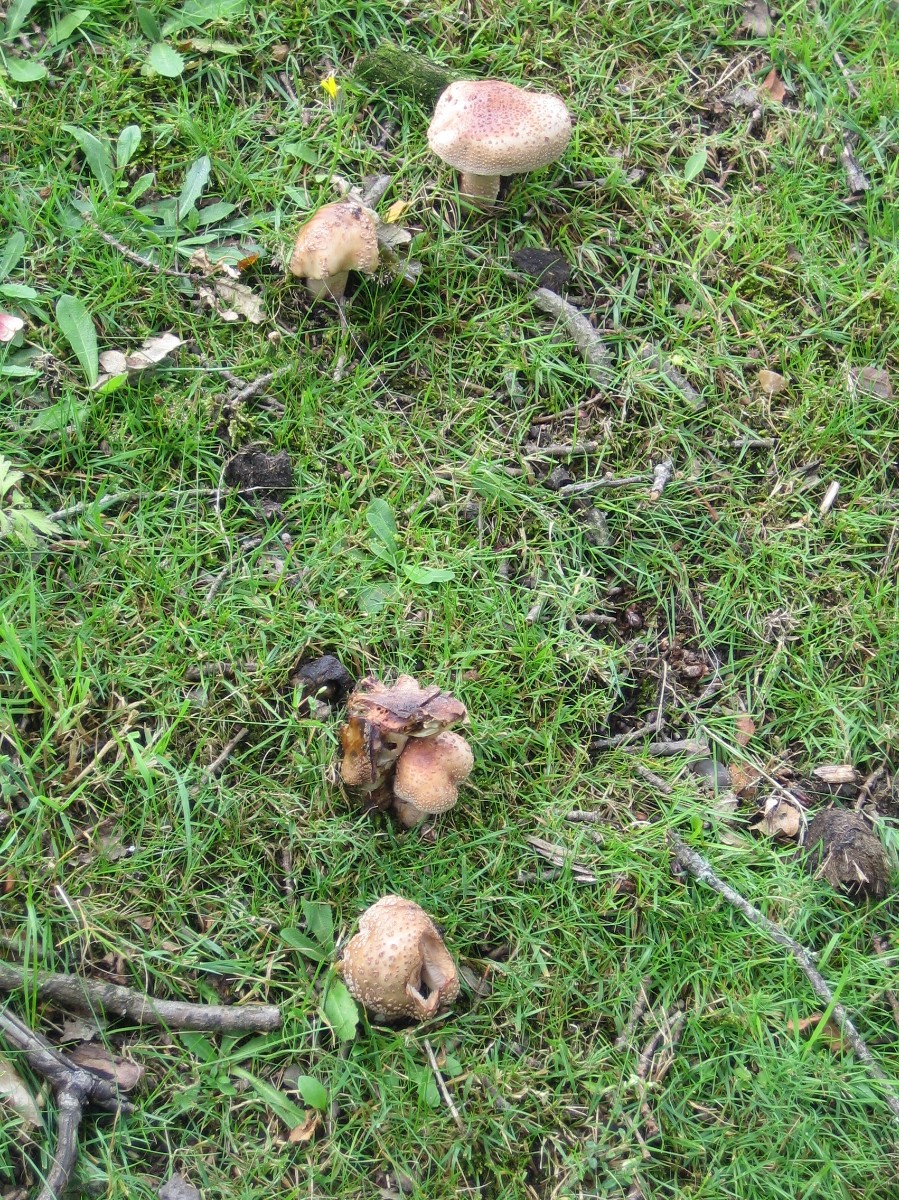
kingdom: Fungi
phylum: Basidiomycota
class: Agaricomycetes
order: Agaricales
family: Amanitaceae
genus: Amanita
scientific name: Amanita rubescens
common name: rødmende fluesvamp
